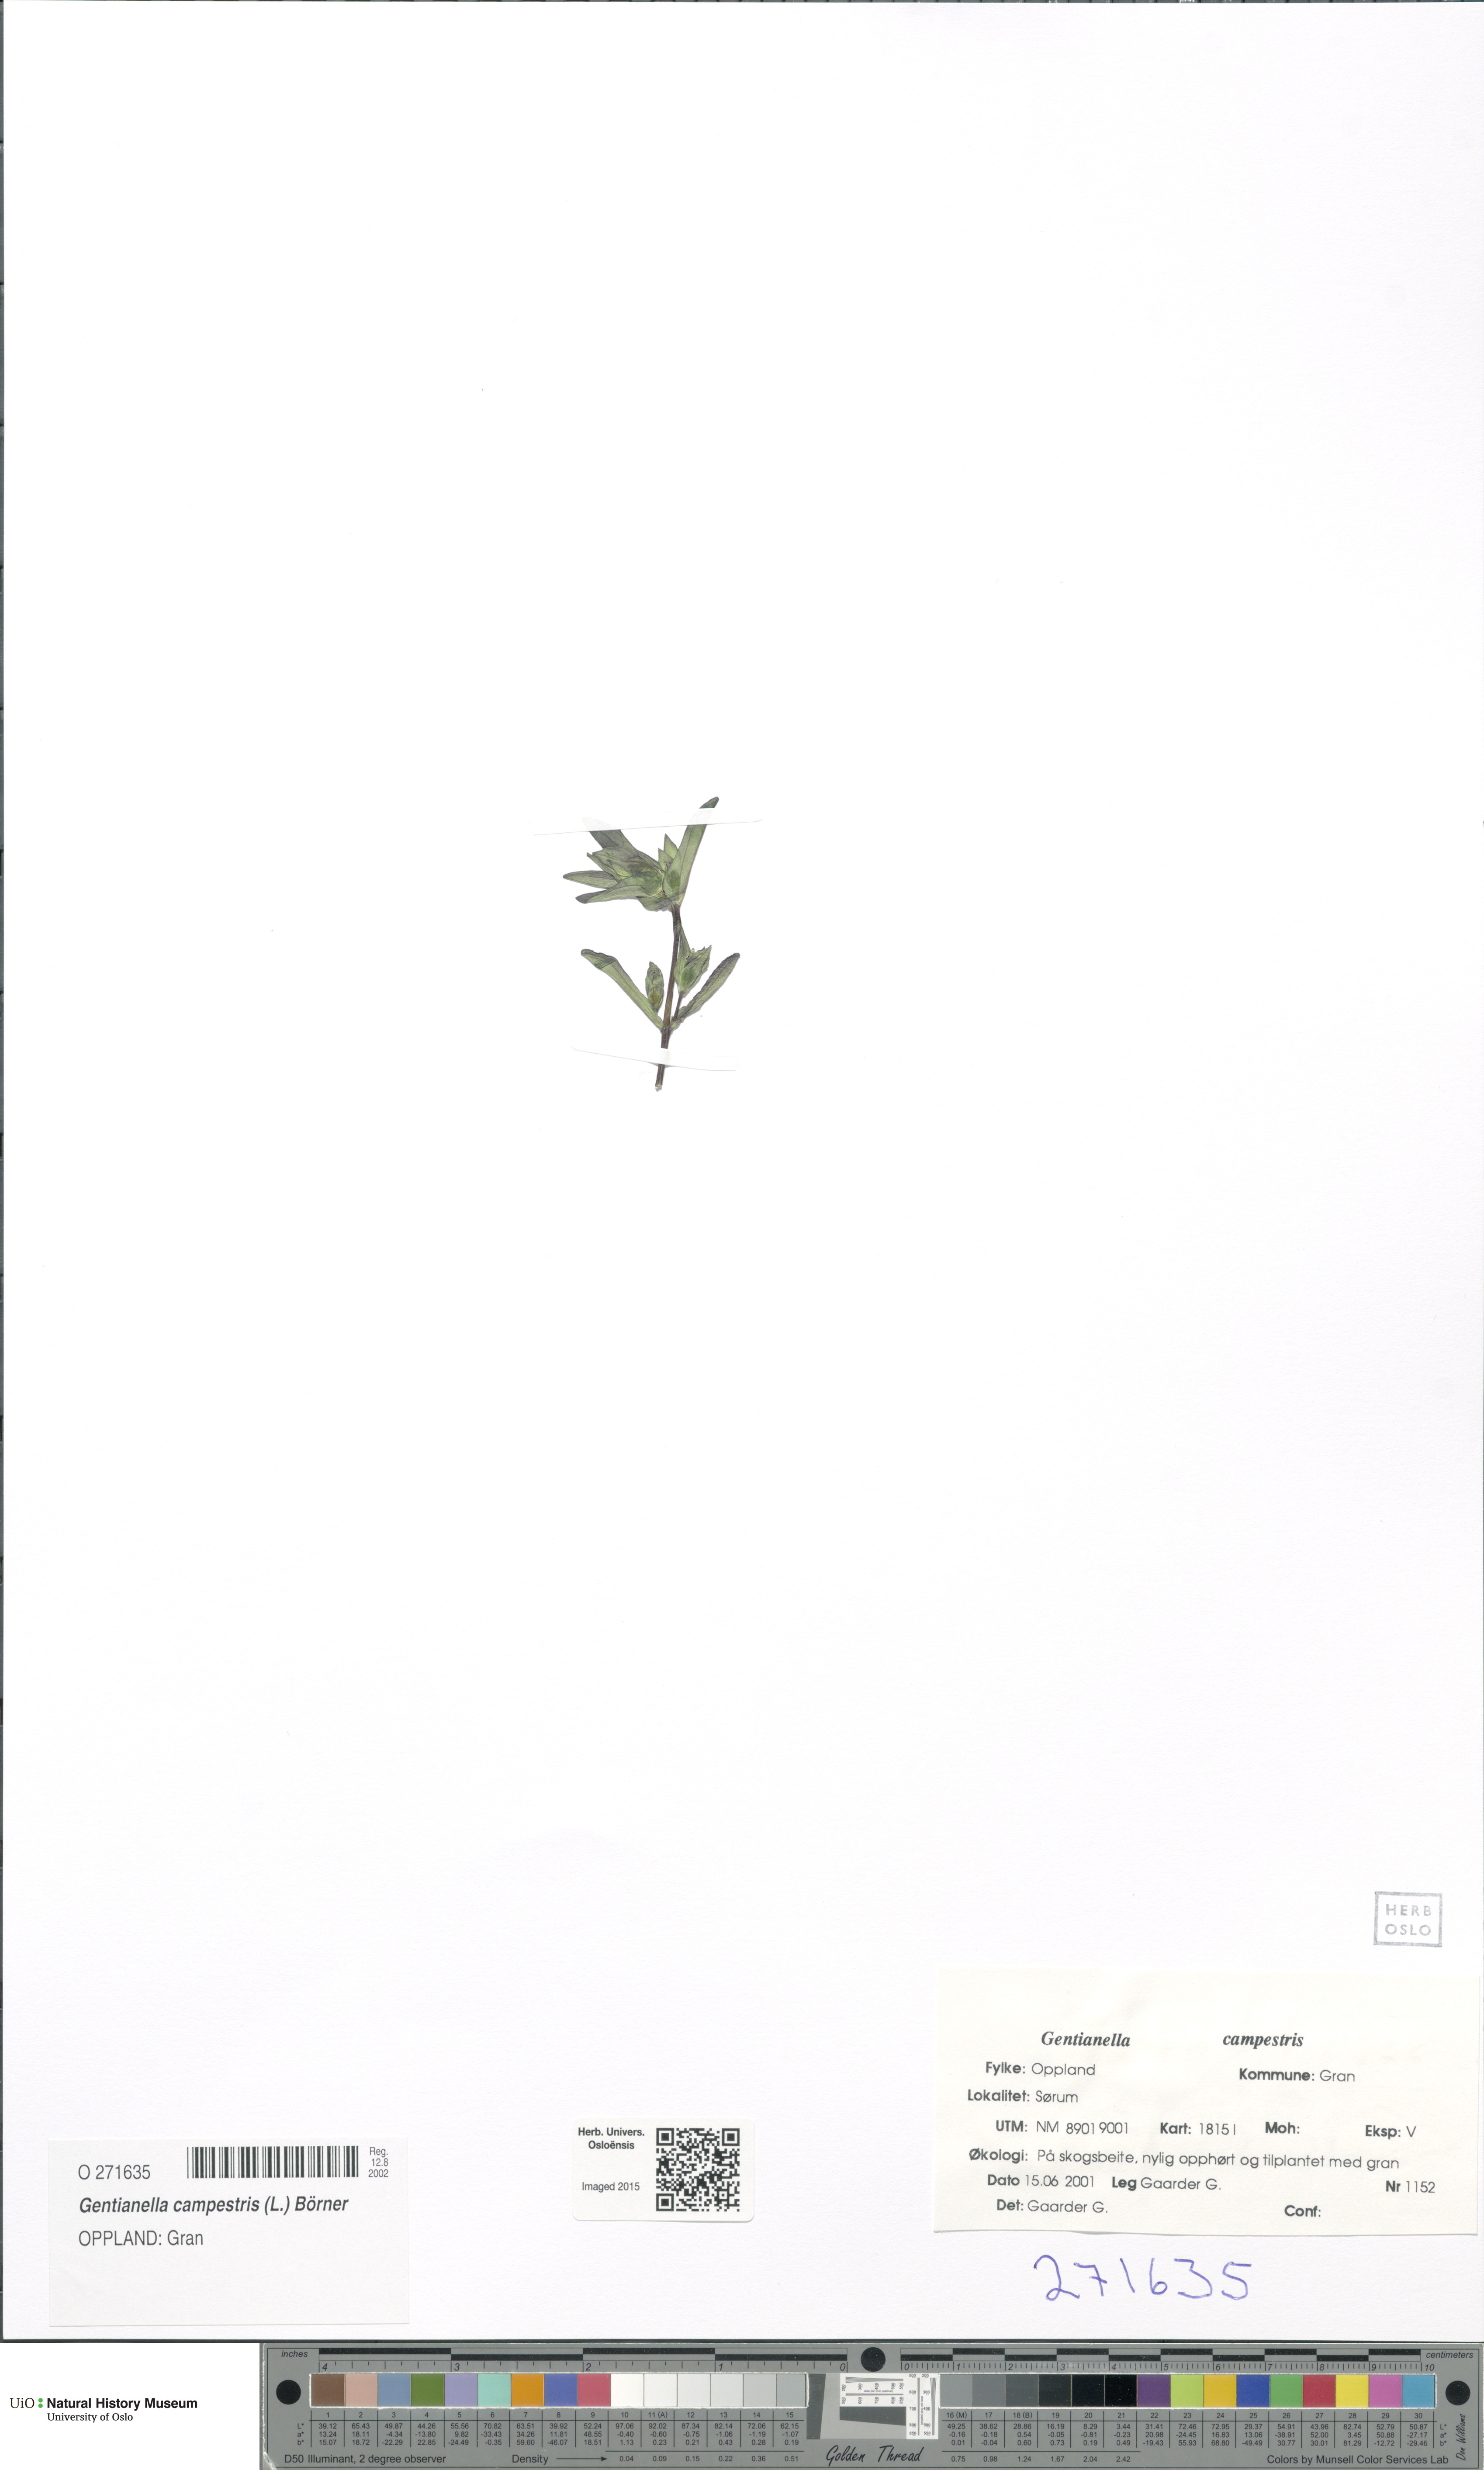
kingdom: Plantae
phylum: Tracheophyta
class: Magnoliopsida
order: Gentianales
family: Gentianaceae
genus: Gentianella
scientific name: Gentianella campestris
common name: Field gentian
